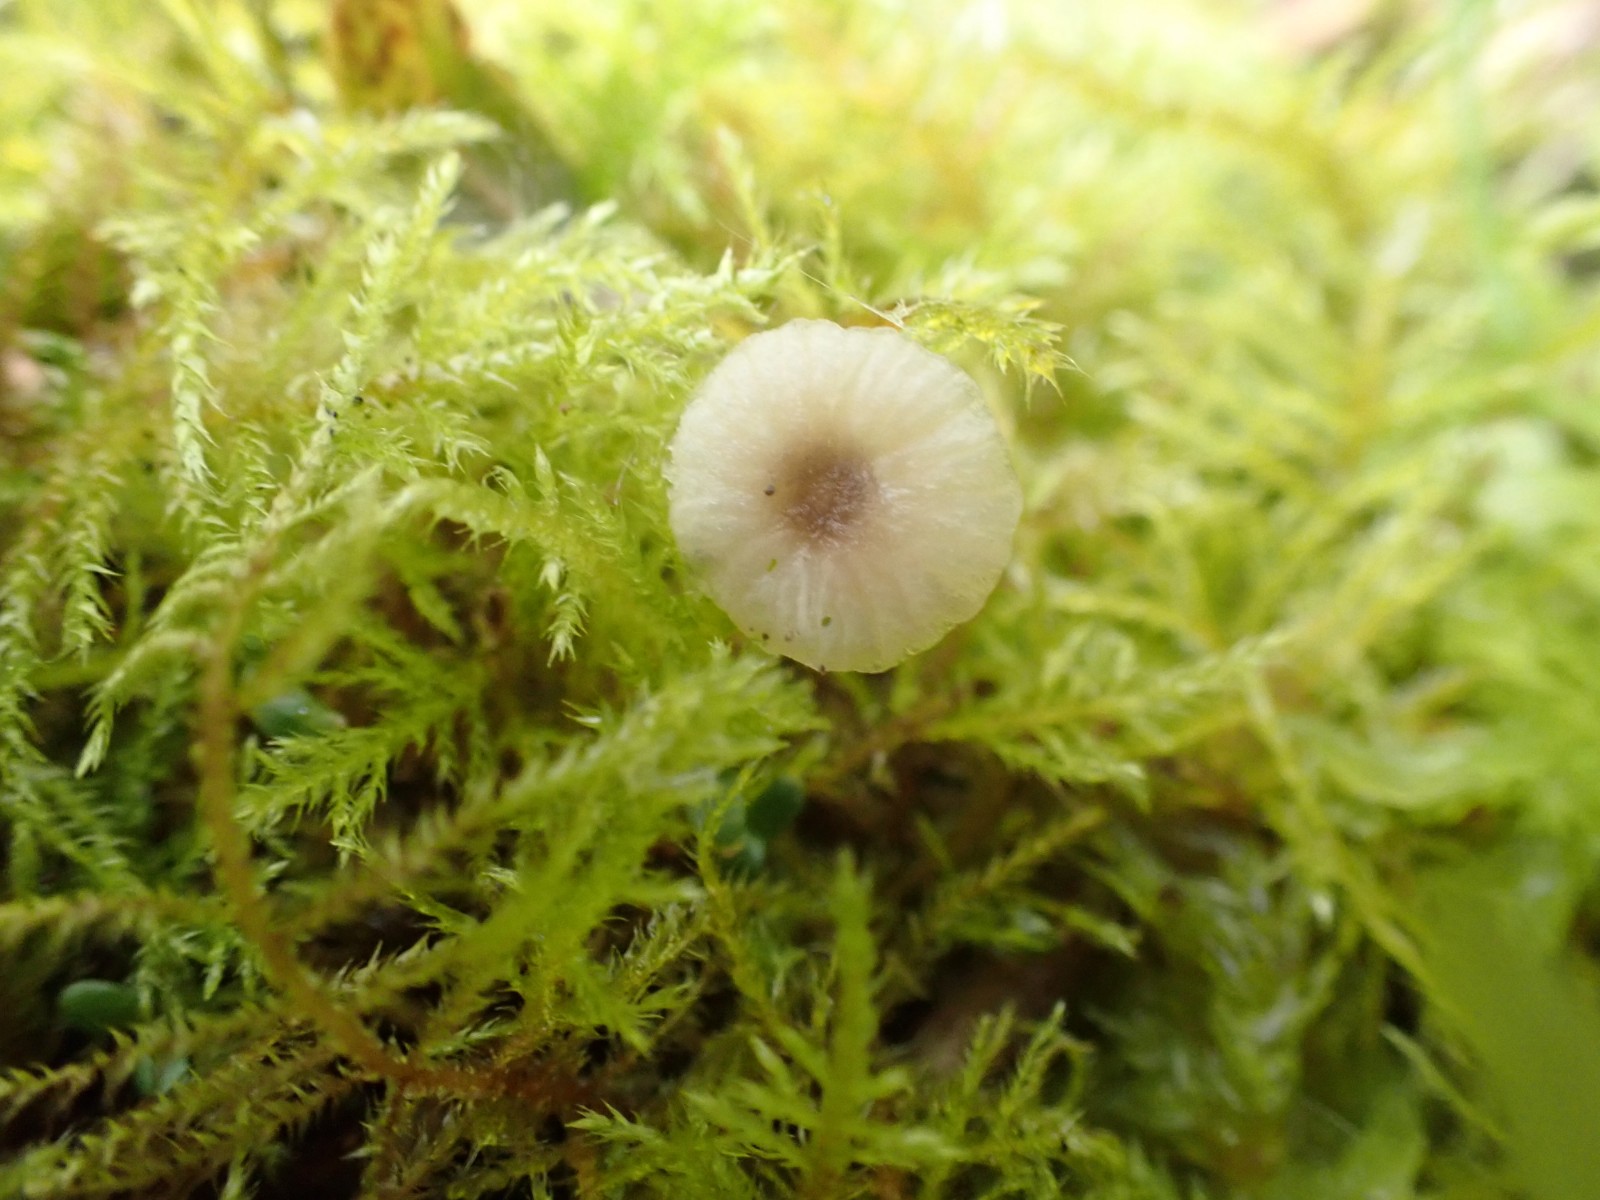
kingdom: Fungi
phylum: Basidiomycota
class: Agaricomycetes
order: Hymenochaetales
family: Rickenellaceae
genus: Rickenella
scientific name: Rickenella swartzii
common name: finstokket mosnavlehat
